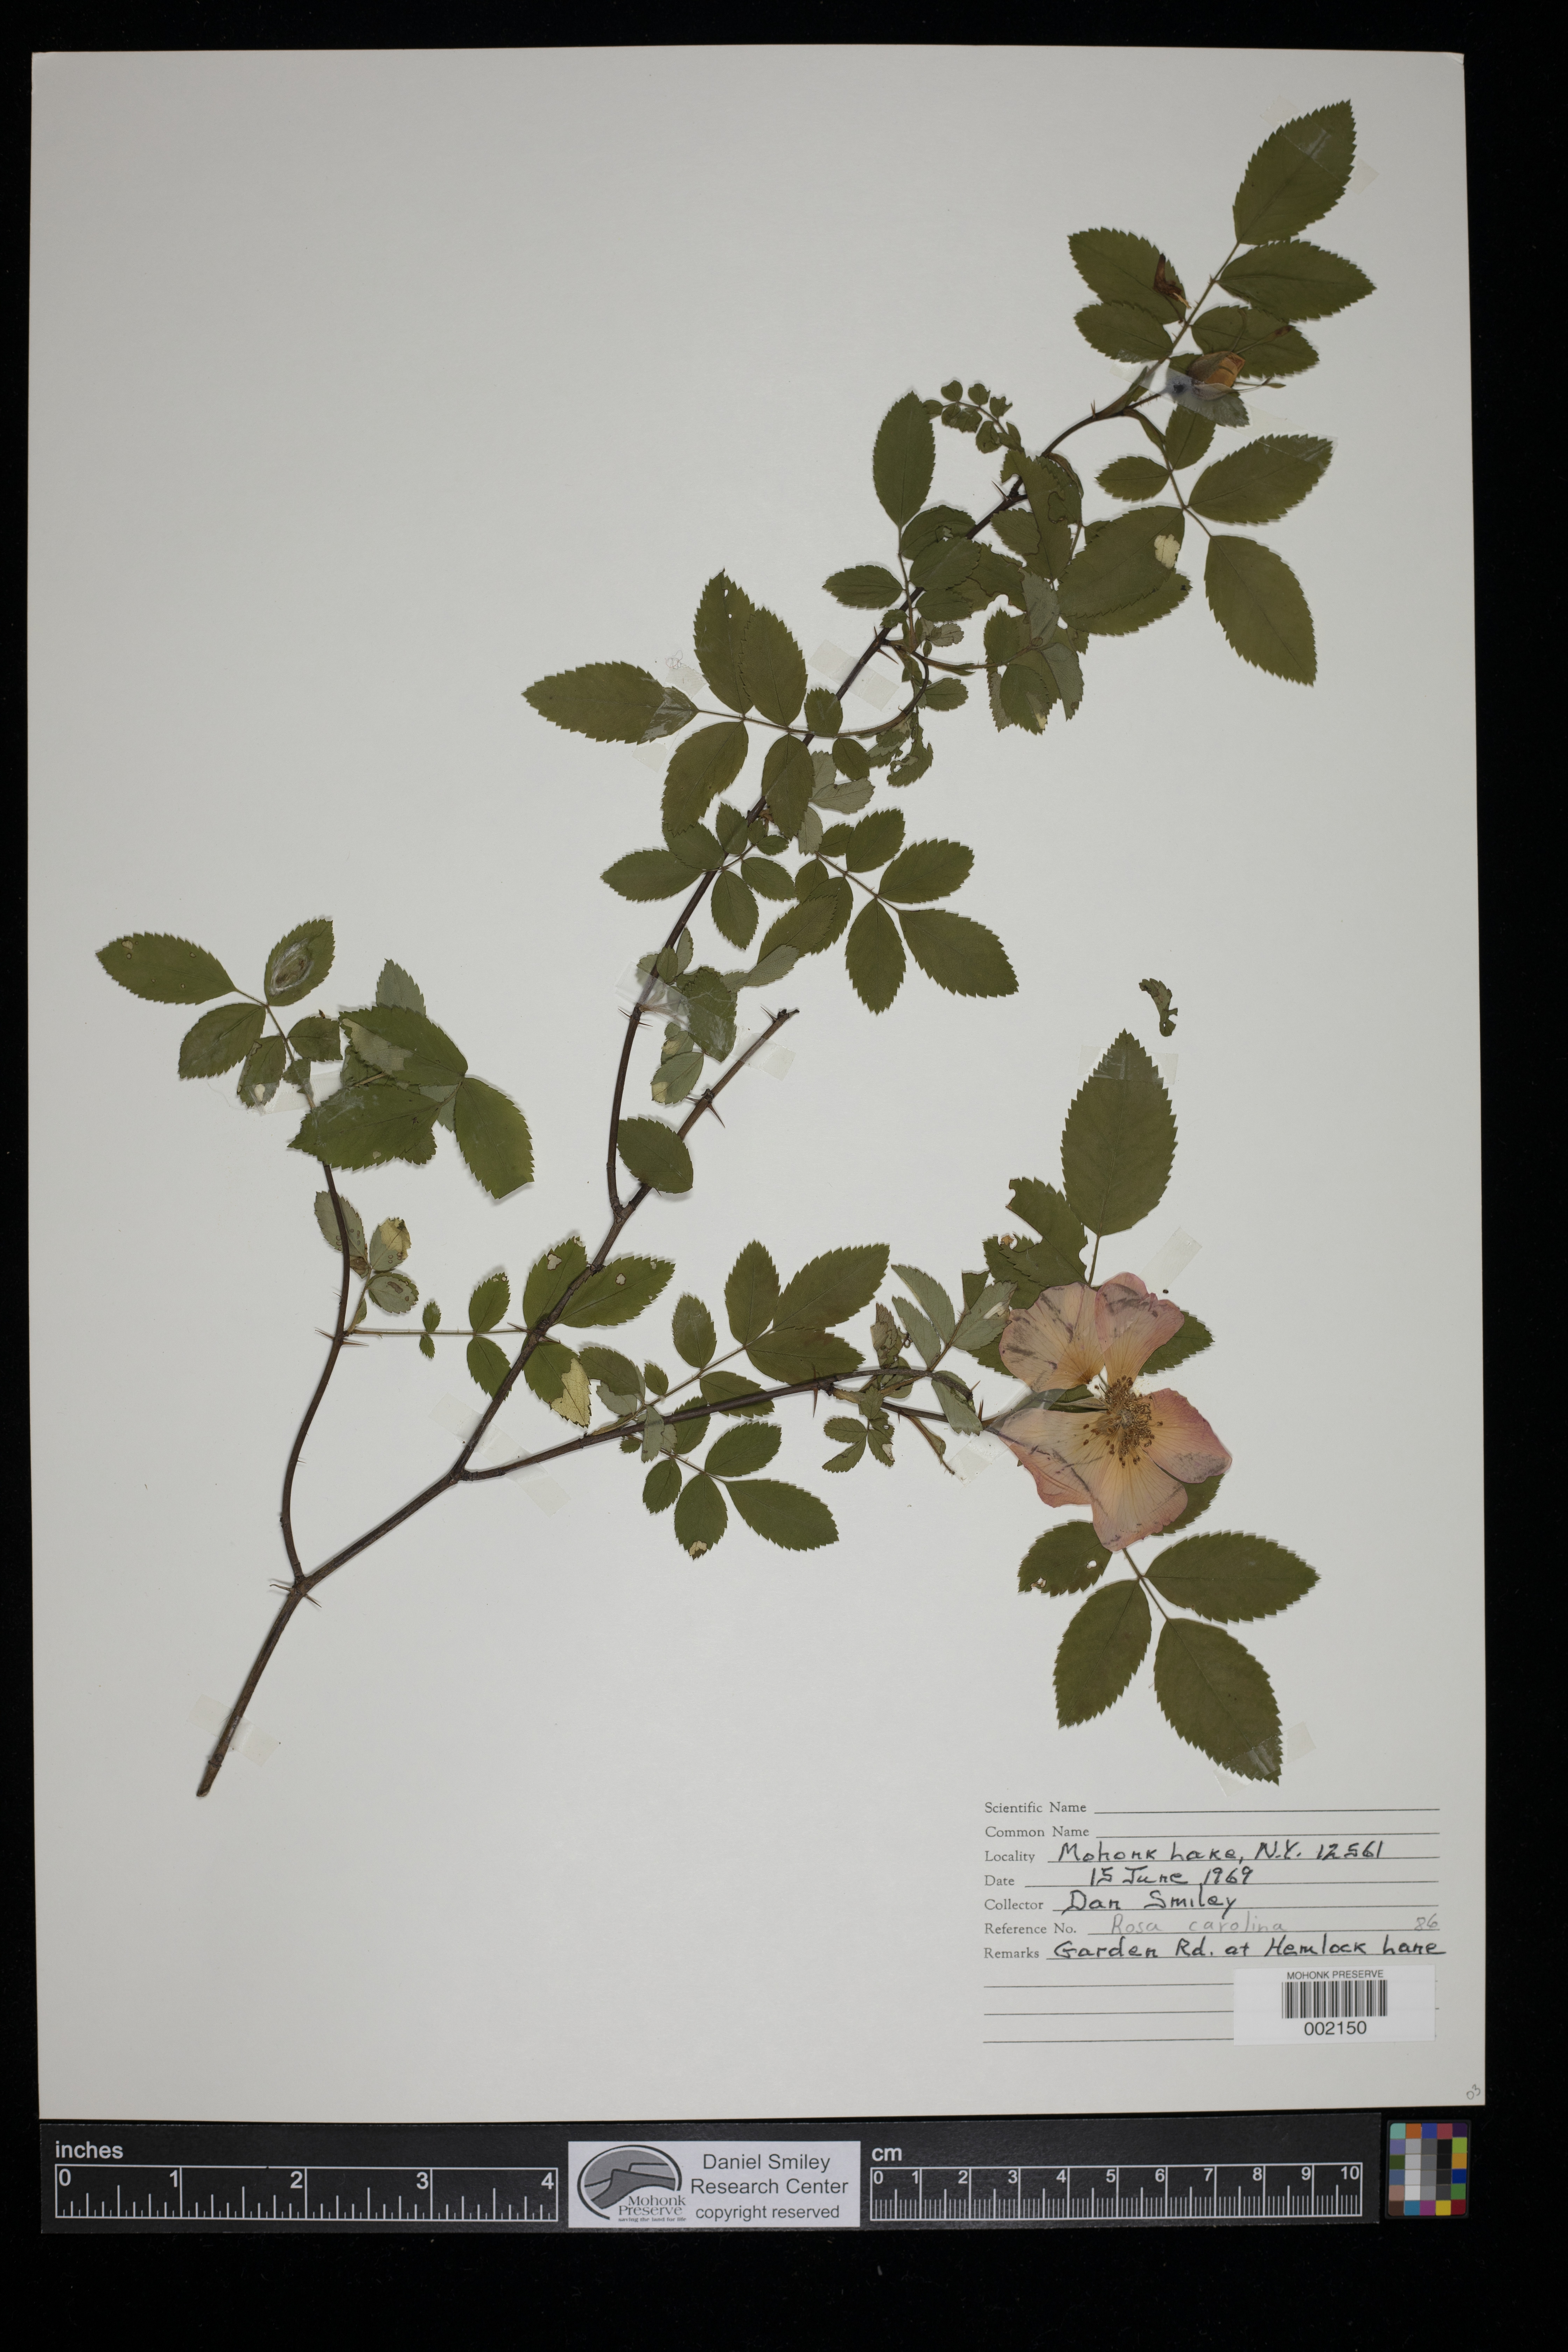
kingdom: Plantae
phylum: Tracheophyta
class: Magnoliopsida
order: Rosales
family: Rosaceae
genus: Rosa
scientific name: Rosa carolina
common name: Pasture rose
